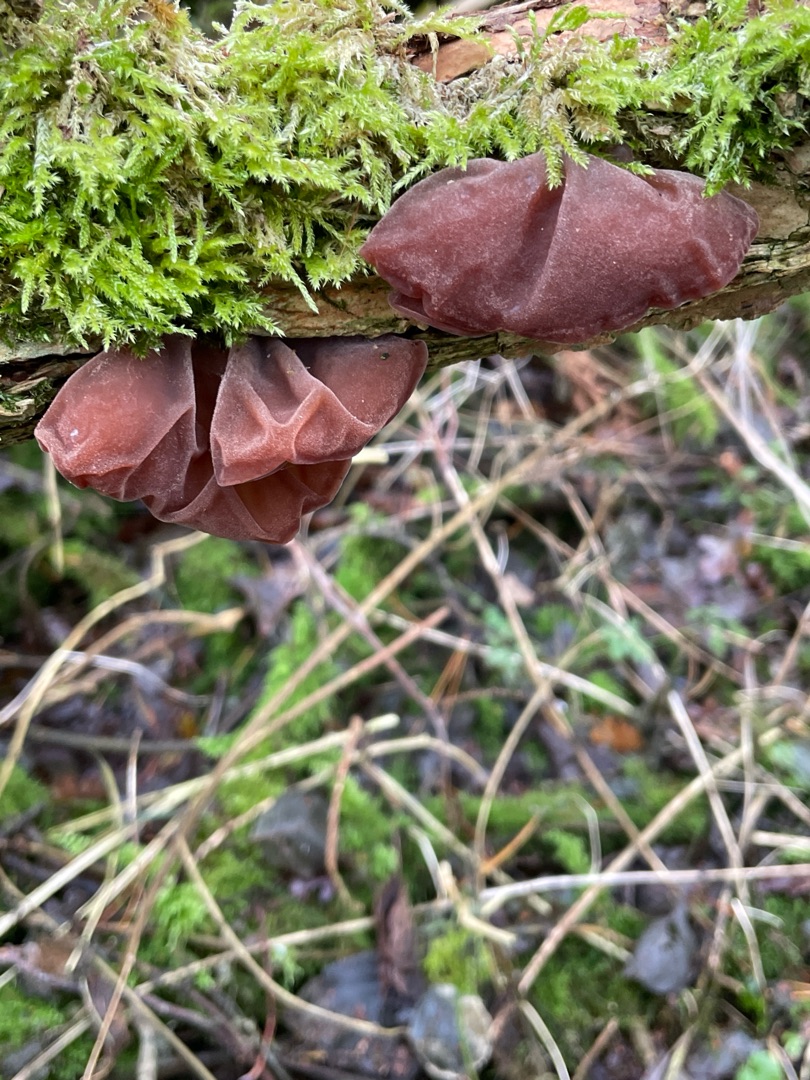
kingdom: Fungi
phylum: Basidiomycota
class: Agaricomycetes
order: Auriculariales
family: Auriculariaceae
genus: Auricularia
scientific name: Auricularia auricula-judae
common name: Almindelig judasøre
